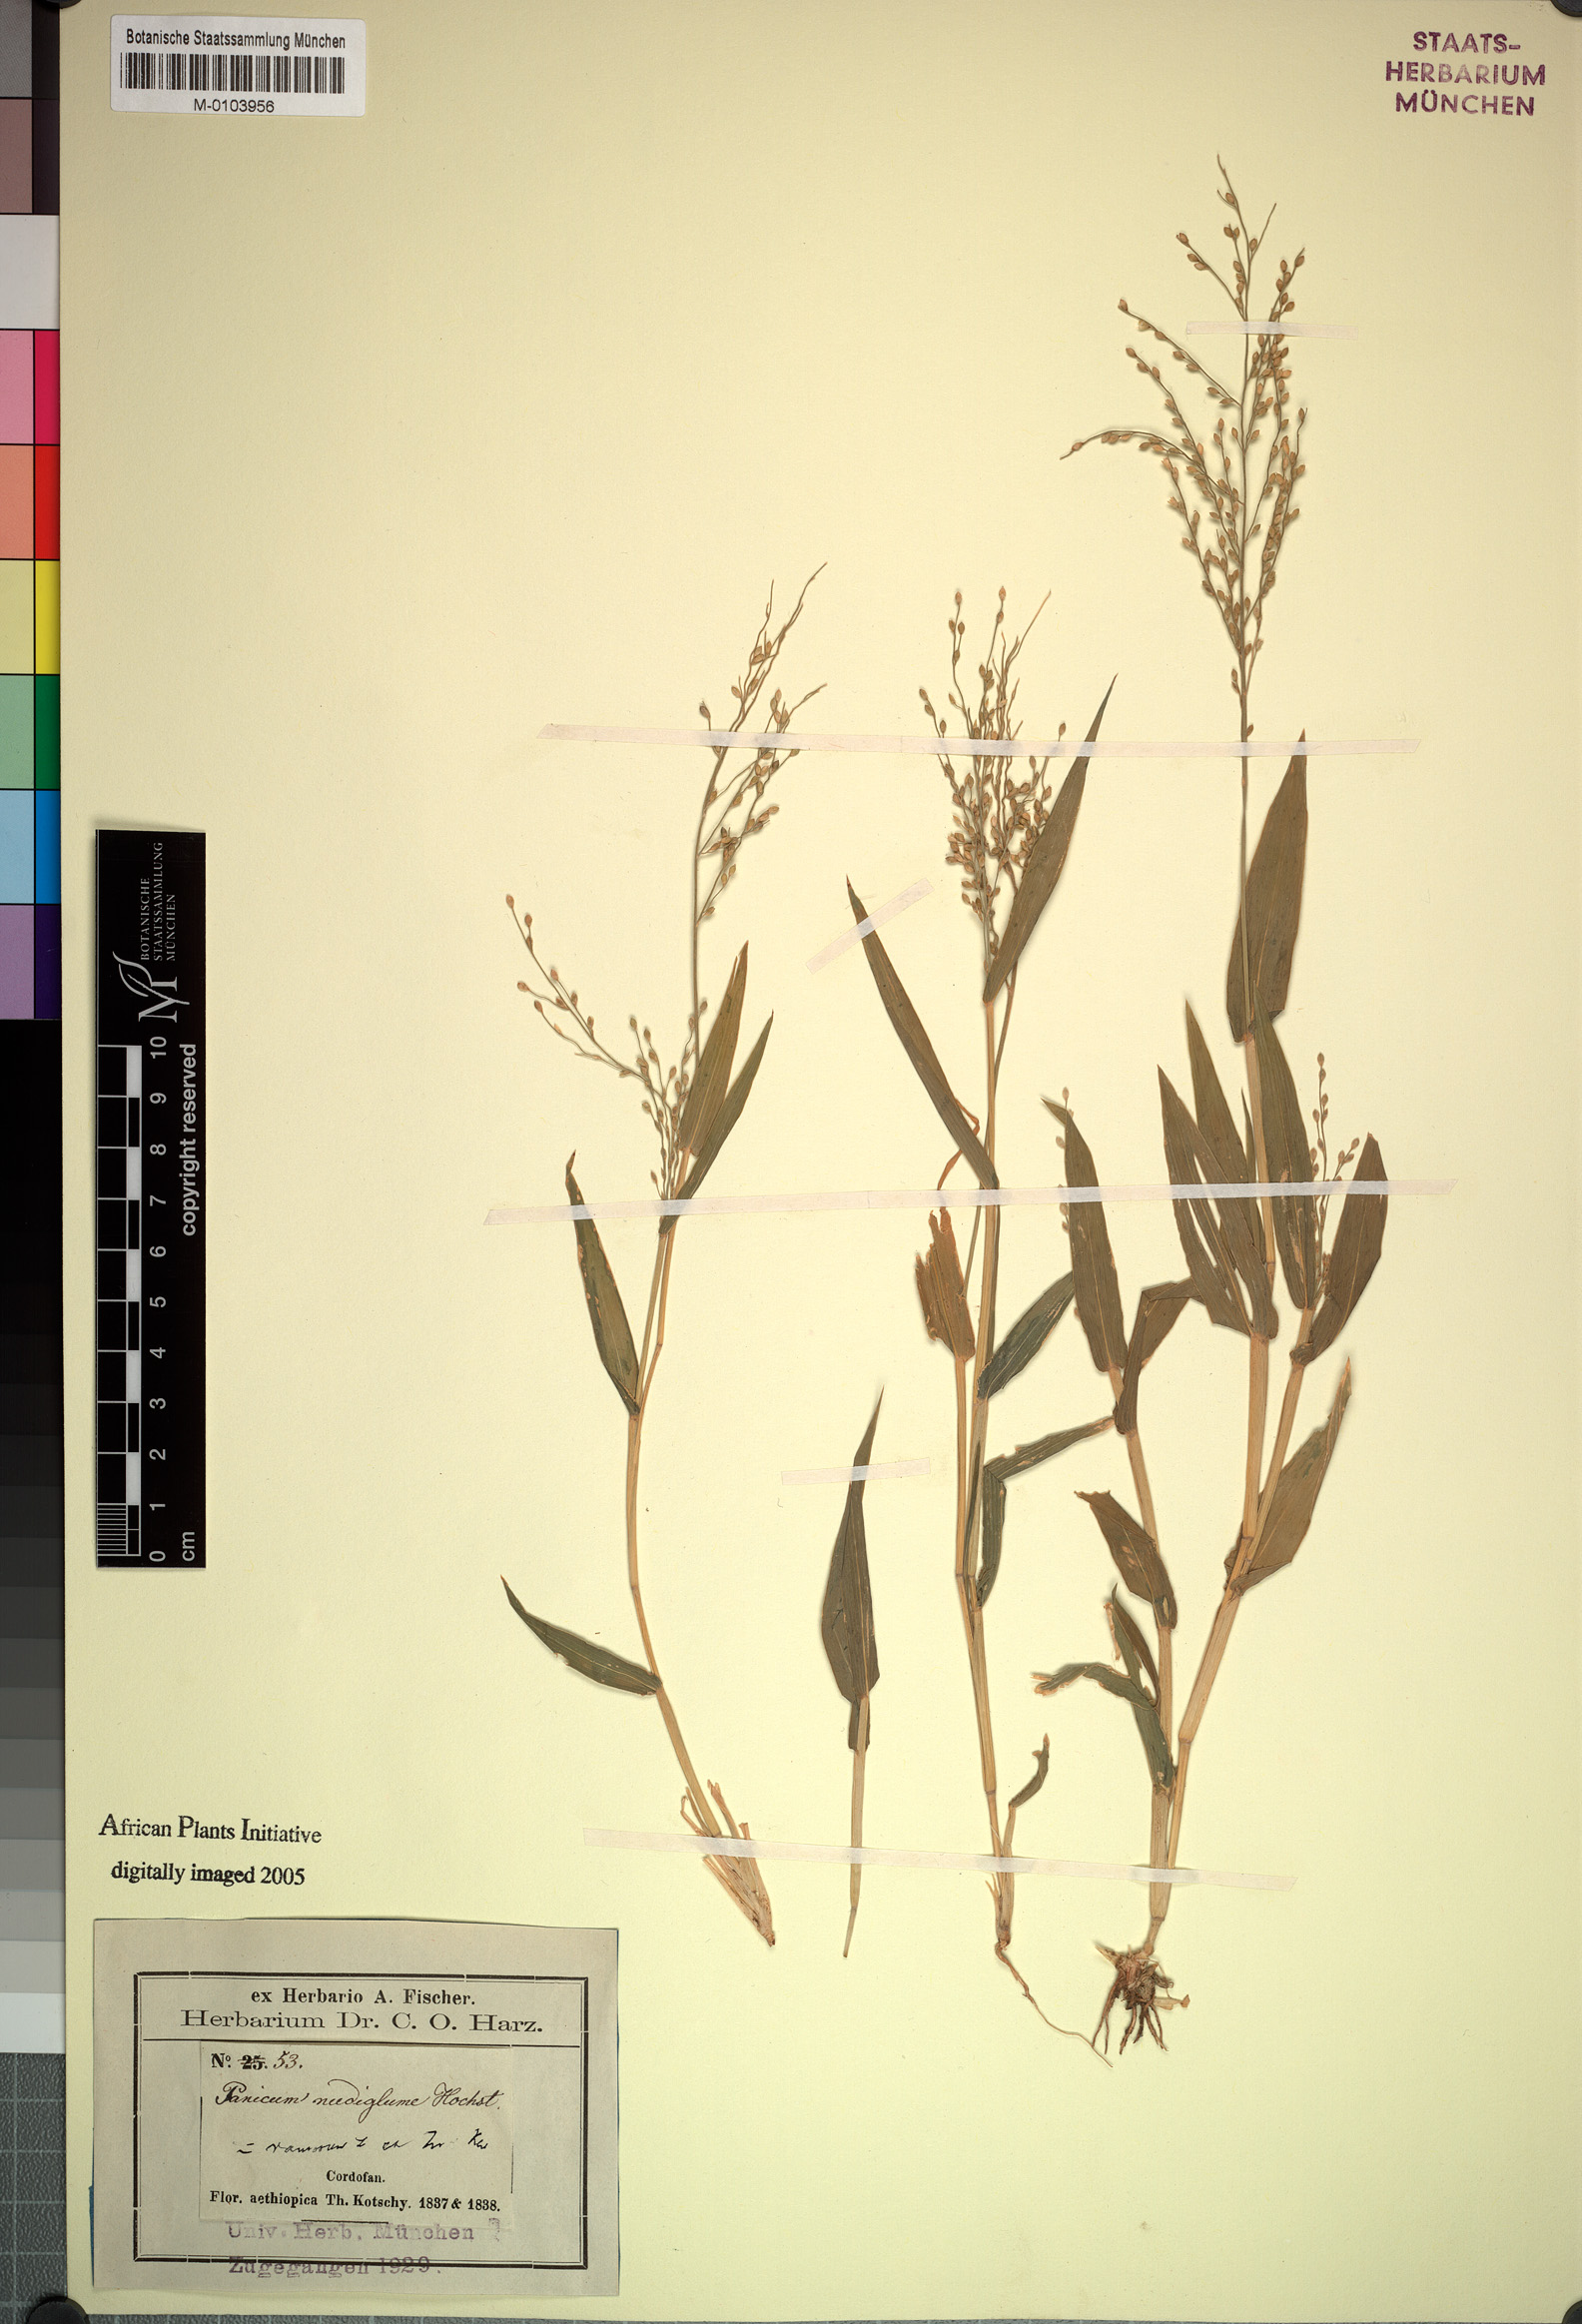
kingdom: Plantae
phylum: Tracheophyta
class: Liliopsida
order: Poales
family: Poaceae
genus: Urochloa
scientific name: Urochloa deflexa
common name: Guinea millet
